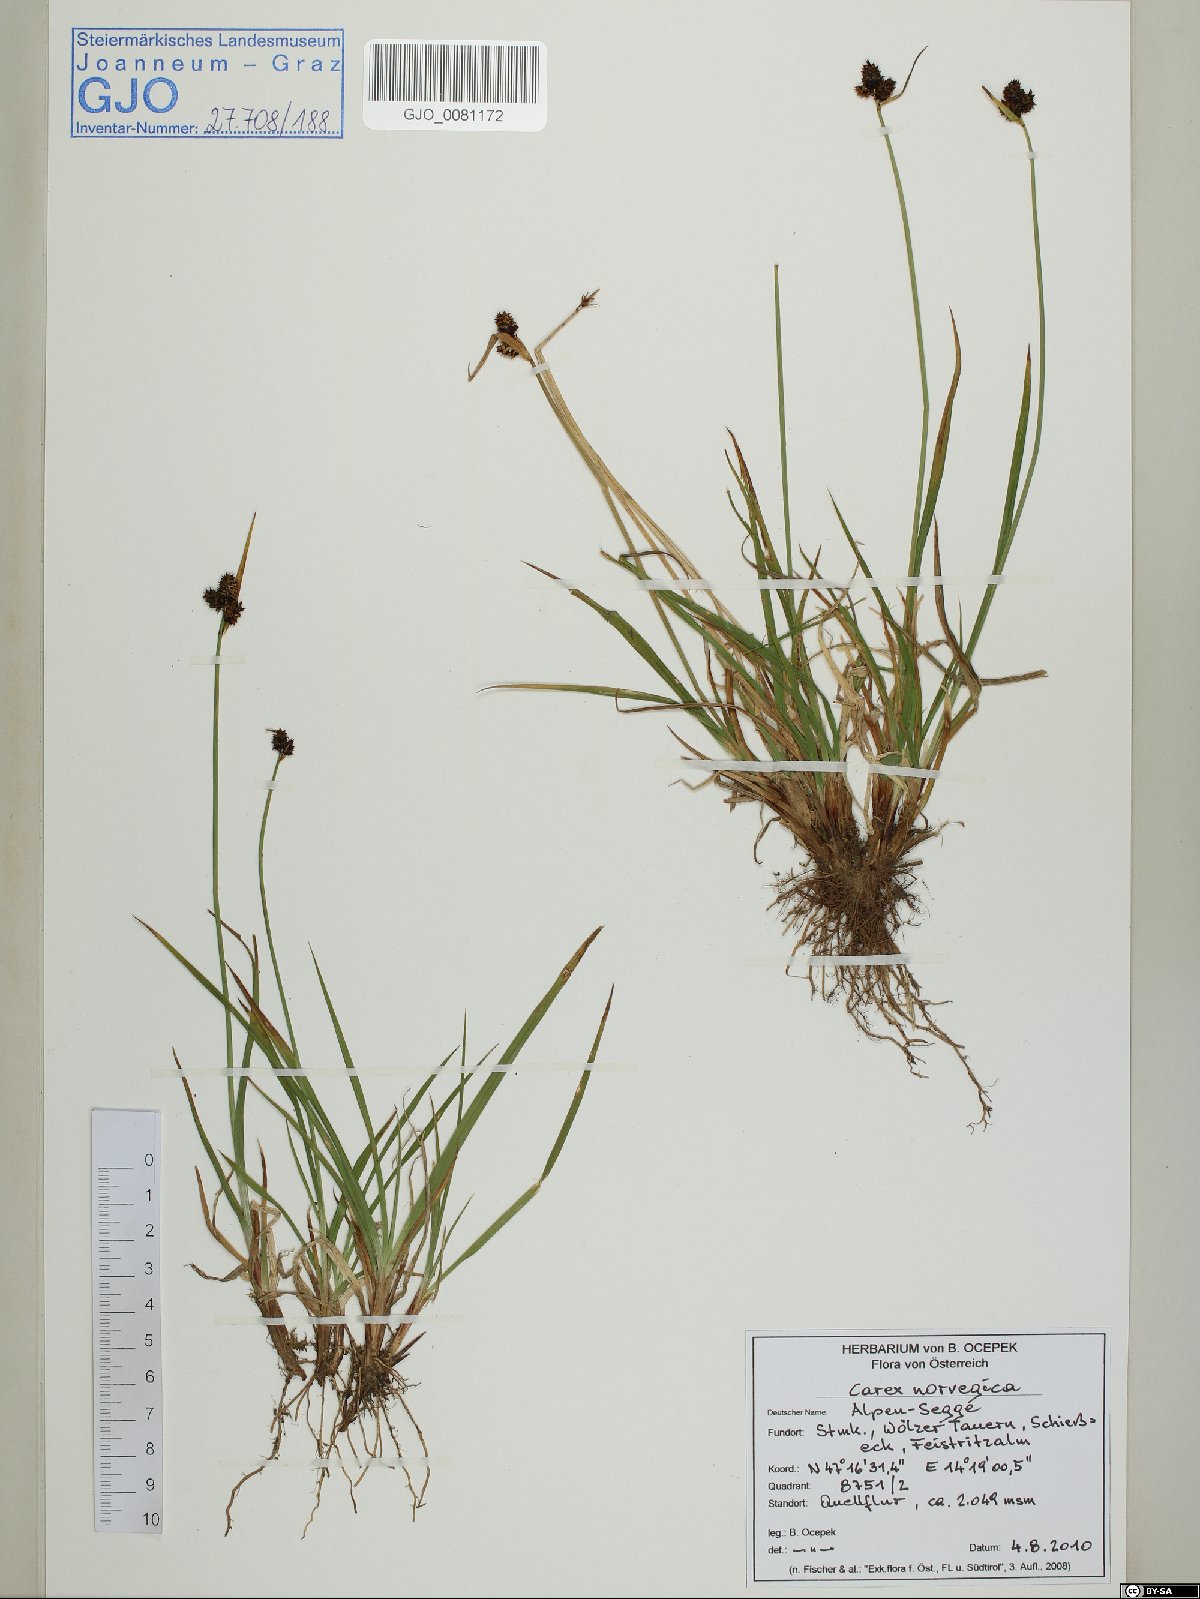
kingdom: Plantae
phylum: Tracheophyta
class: Liliopsida
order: Poales
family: Cyperaceae
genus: Carex
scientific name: Carex norvegica
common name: Close-headed alpine-sedge
